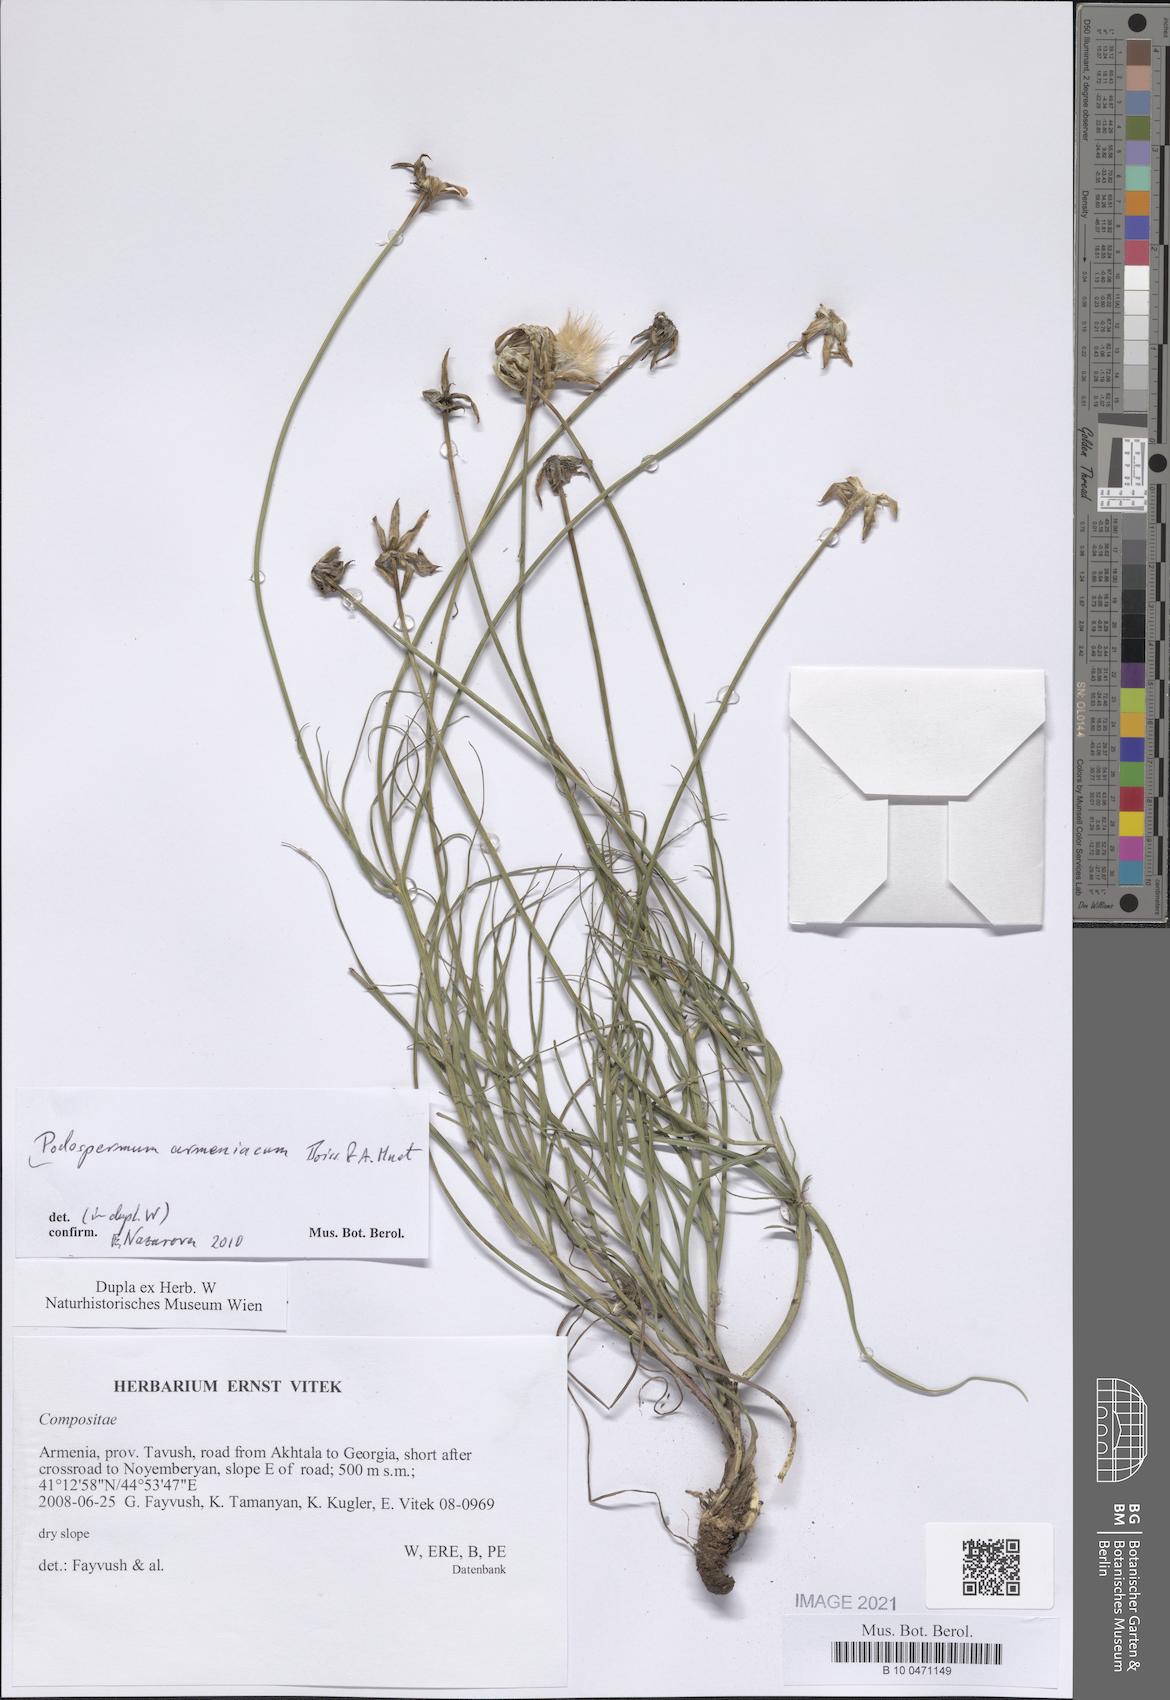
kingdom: Plantae
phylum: Tracheophyta
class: Magnoliopsida
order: Asterales
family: Asteraceae
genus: Scorzonera
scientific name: Scorzonera armeniaca
